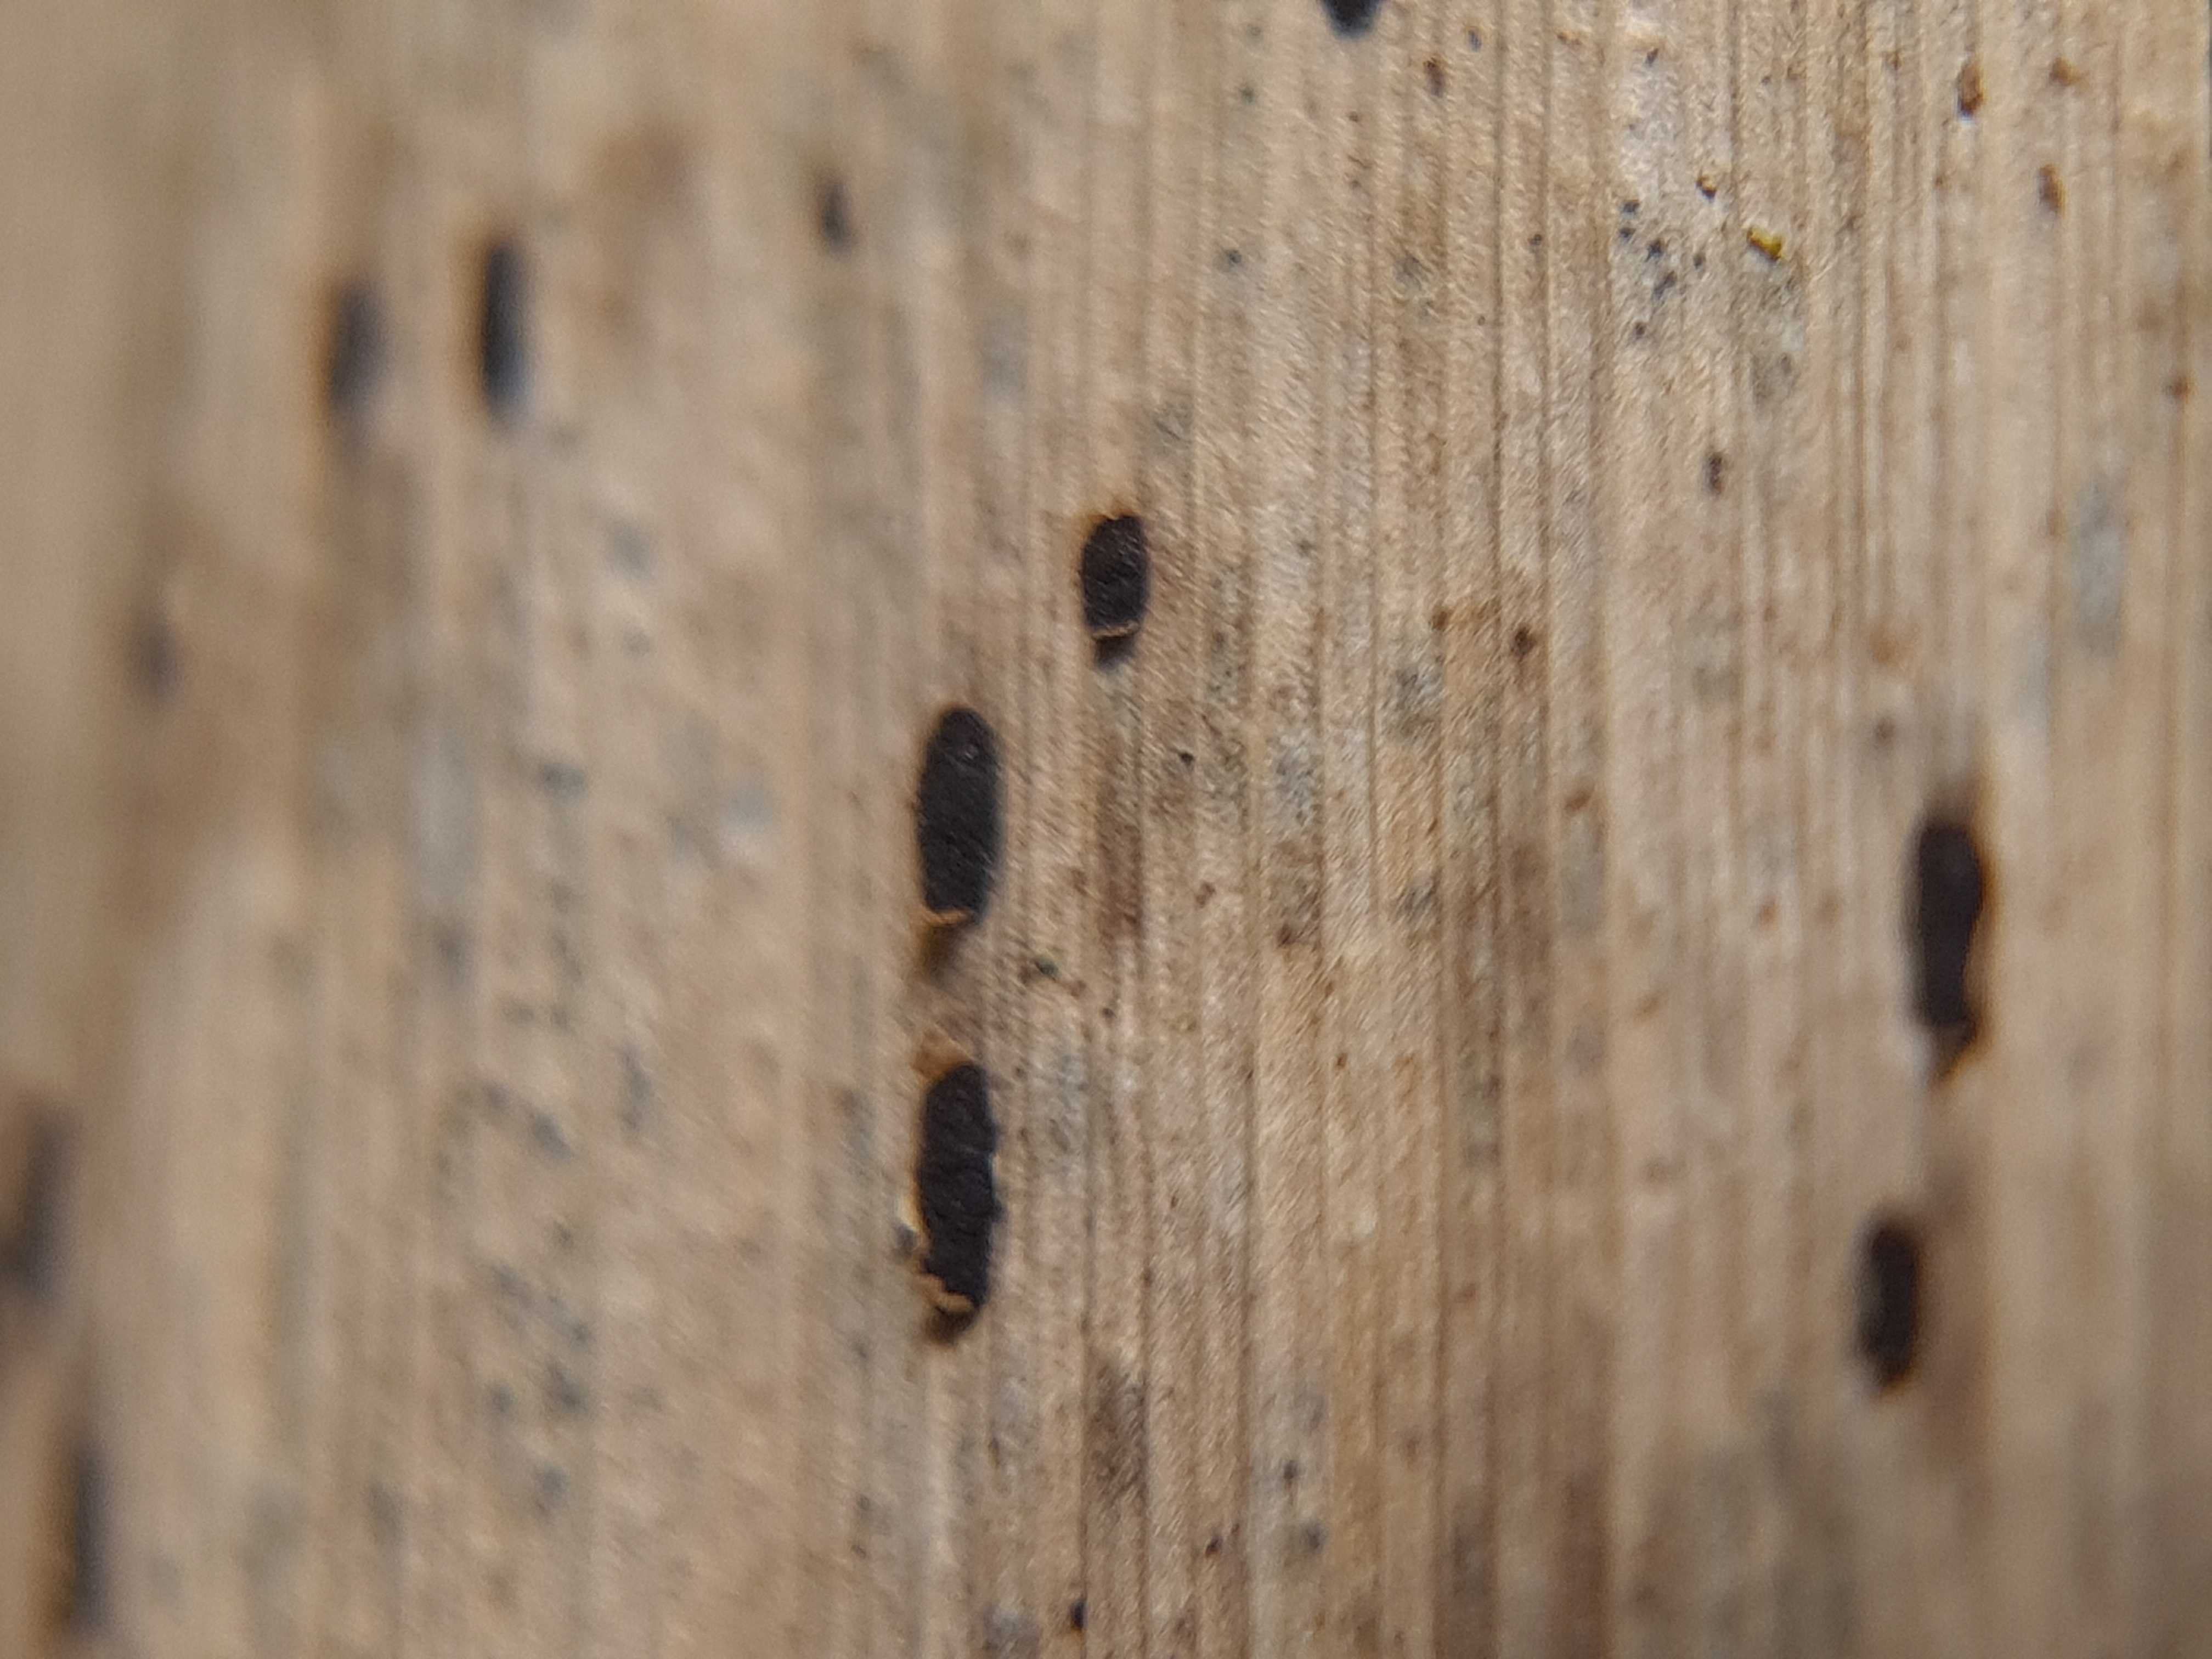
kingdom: Fungi
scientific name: Fungi
